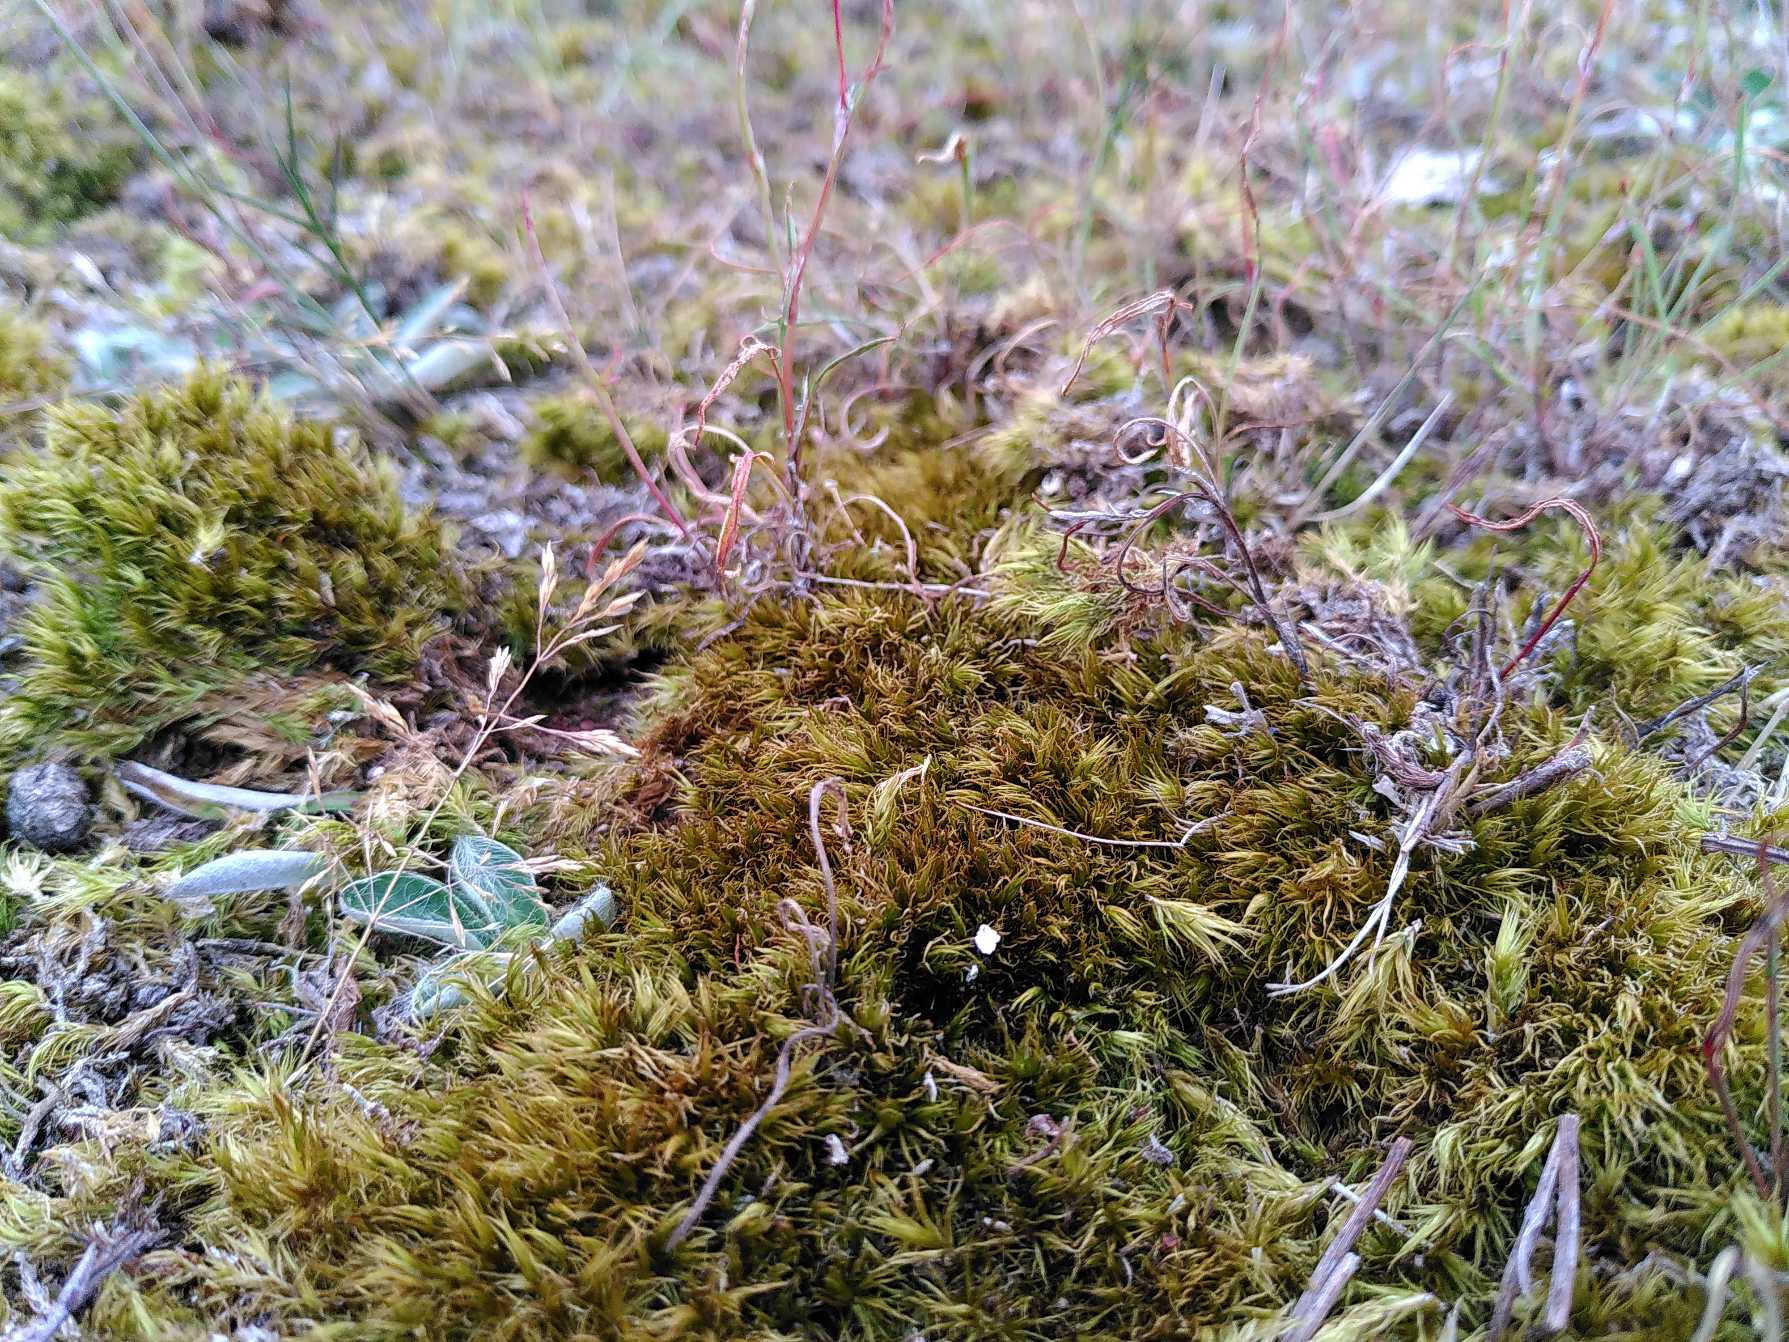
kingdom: Plantae
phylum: Bryophyta
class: Bryopsida
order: Dicranales
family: Dicranaceae
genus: Dicranum
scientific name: Dicranum
